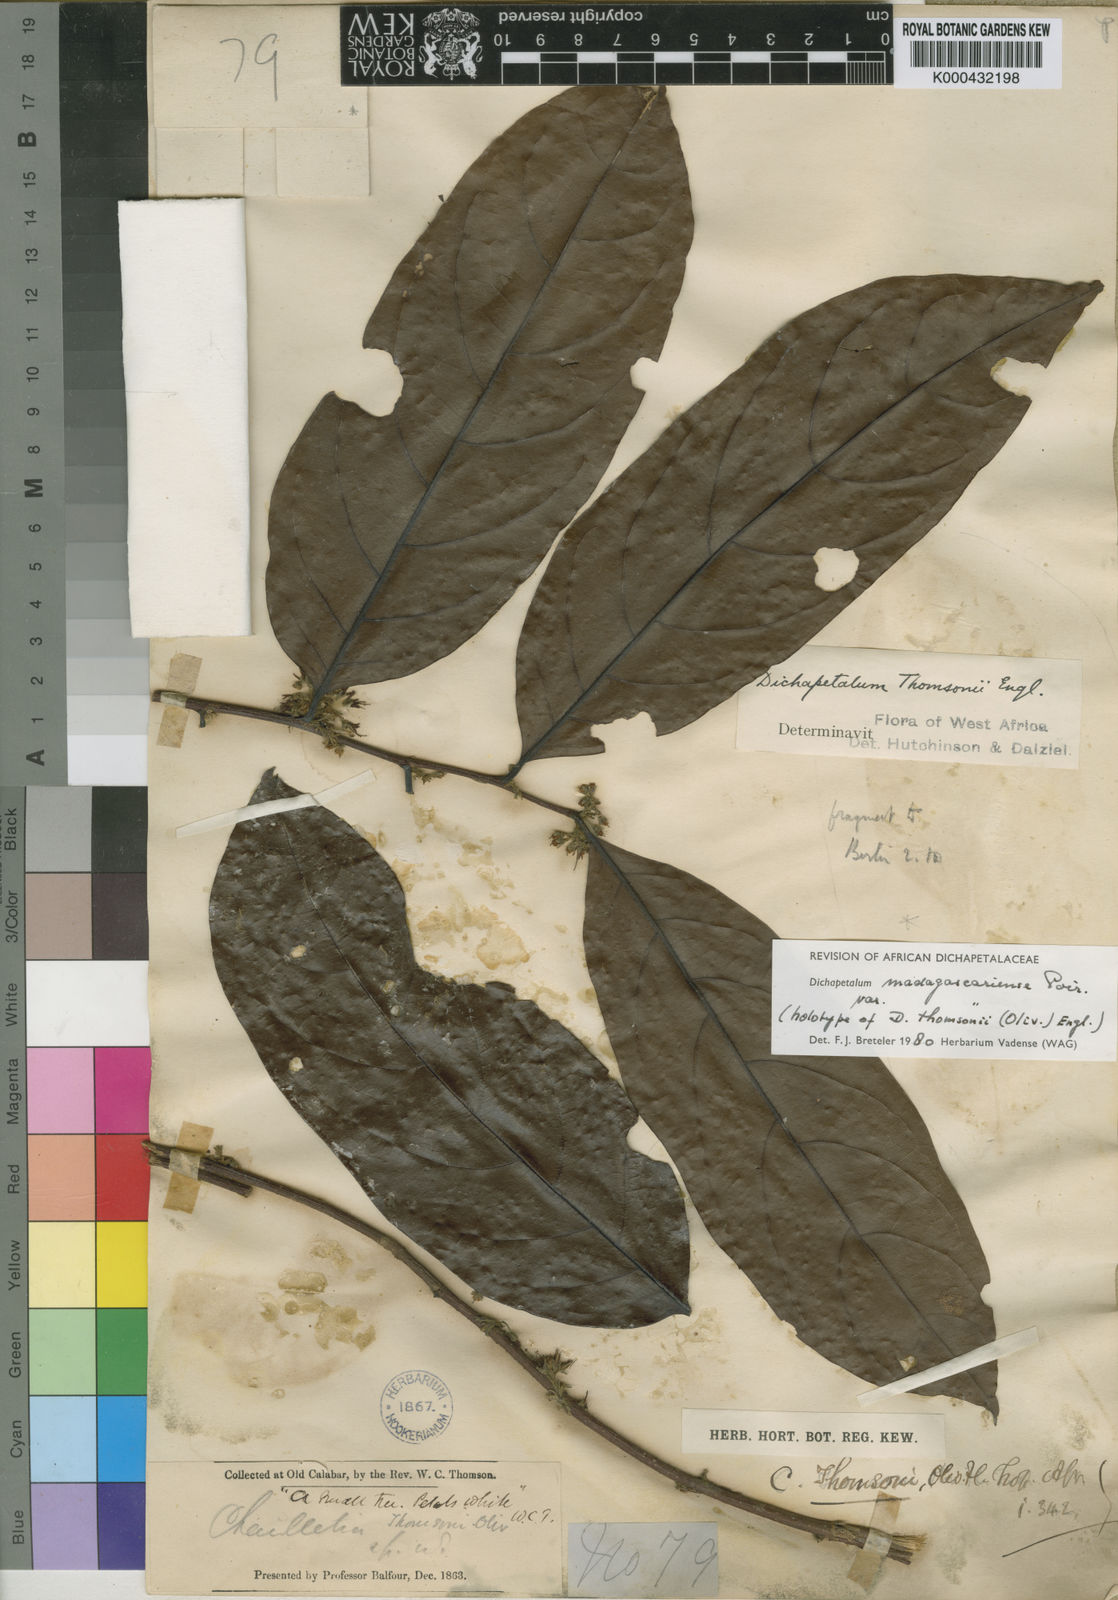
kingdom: Plantae
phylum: Tracheophyta
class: Magnoliopsida
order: Malpighiales
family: Dichapetalaceae
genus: Dichapetalum
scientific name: Dichapetalum madagascariense
